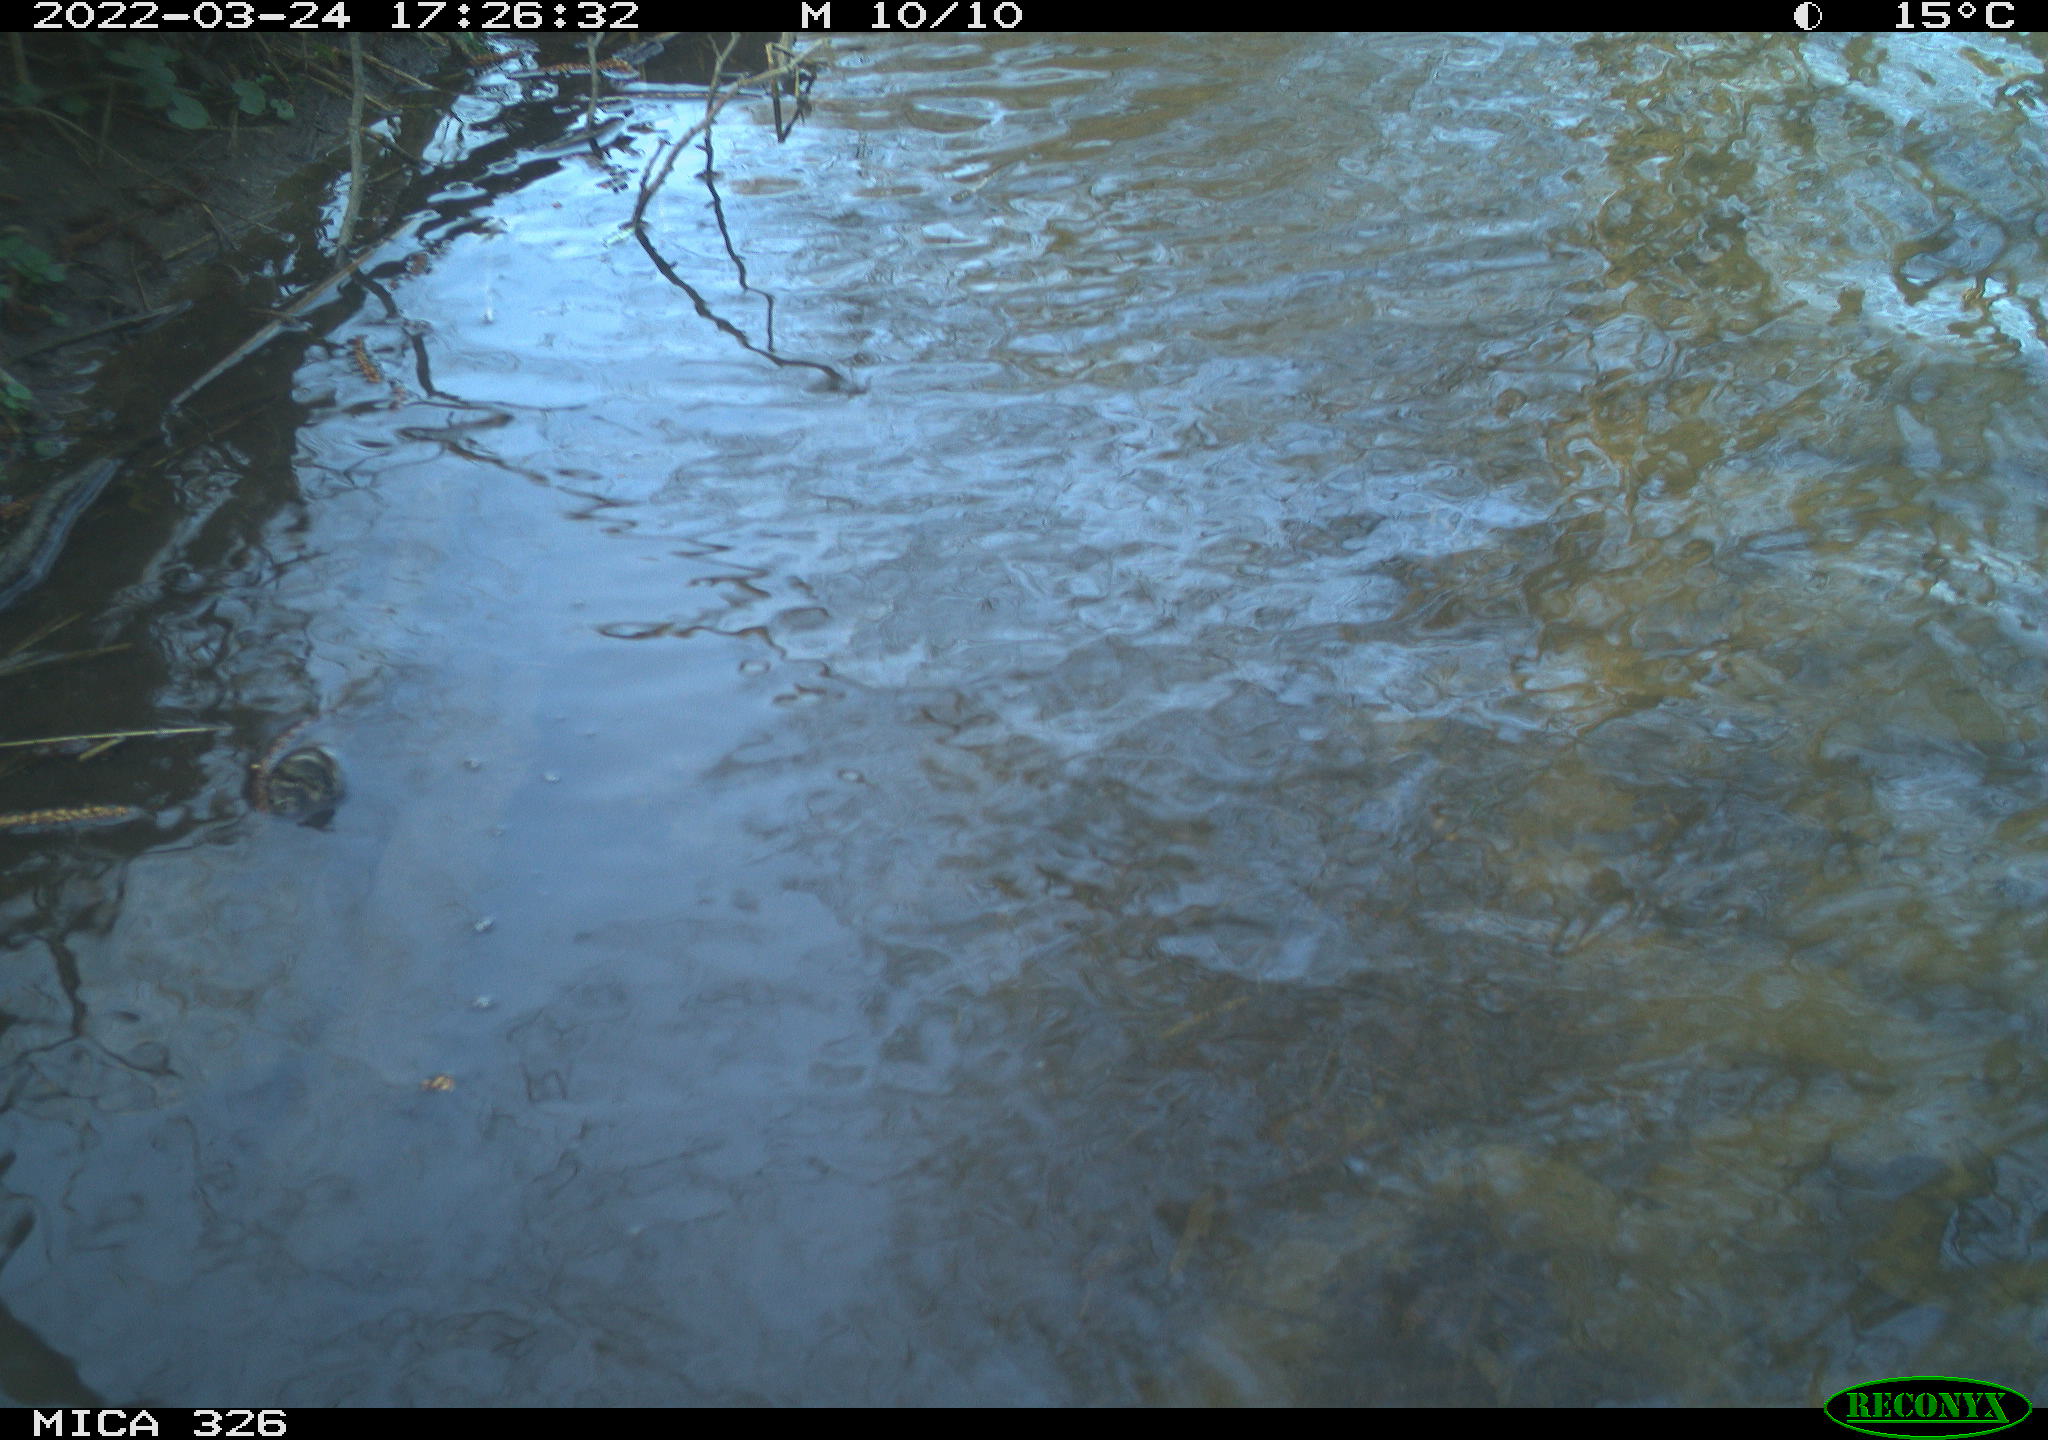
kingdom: Animalia
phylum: Chordata
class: Mammalia
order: Rodentia
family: Cricetidae
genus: Ondatra
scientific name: Ondatra zibethicus
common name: Muskrat
